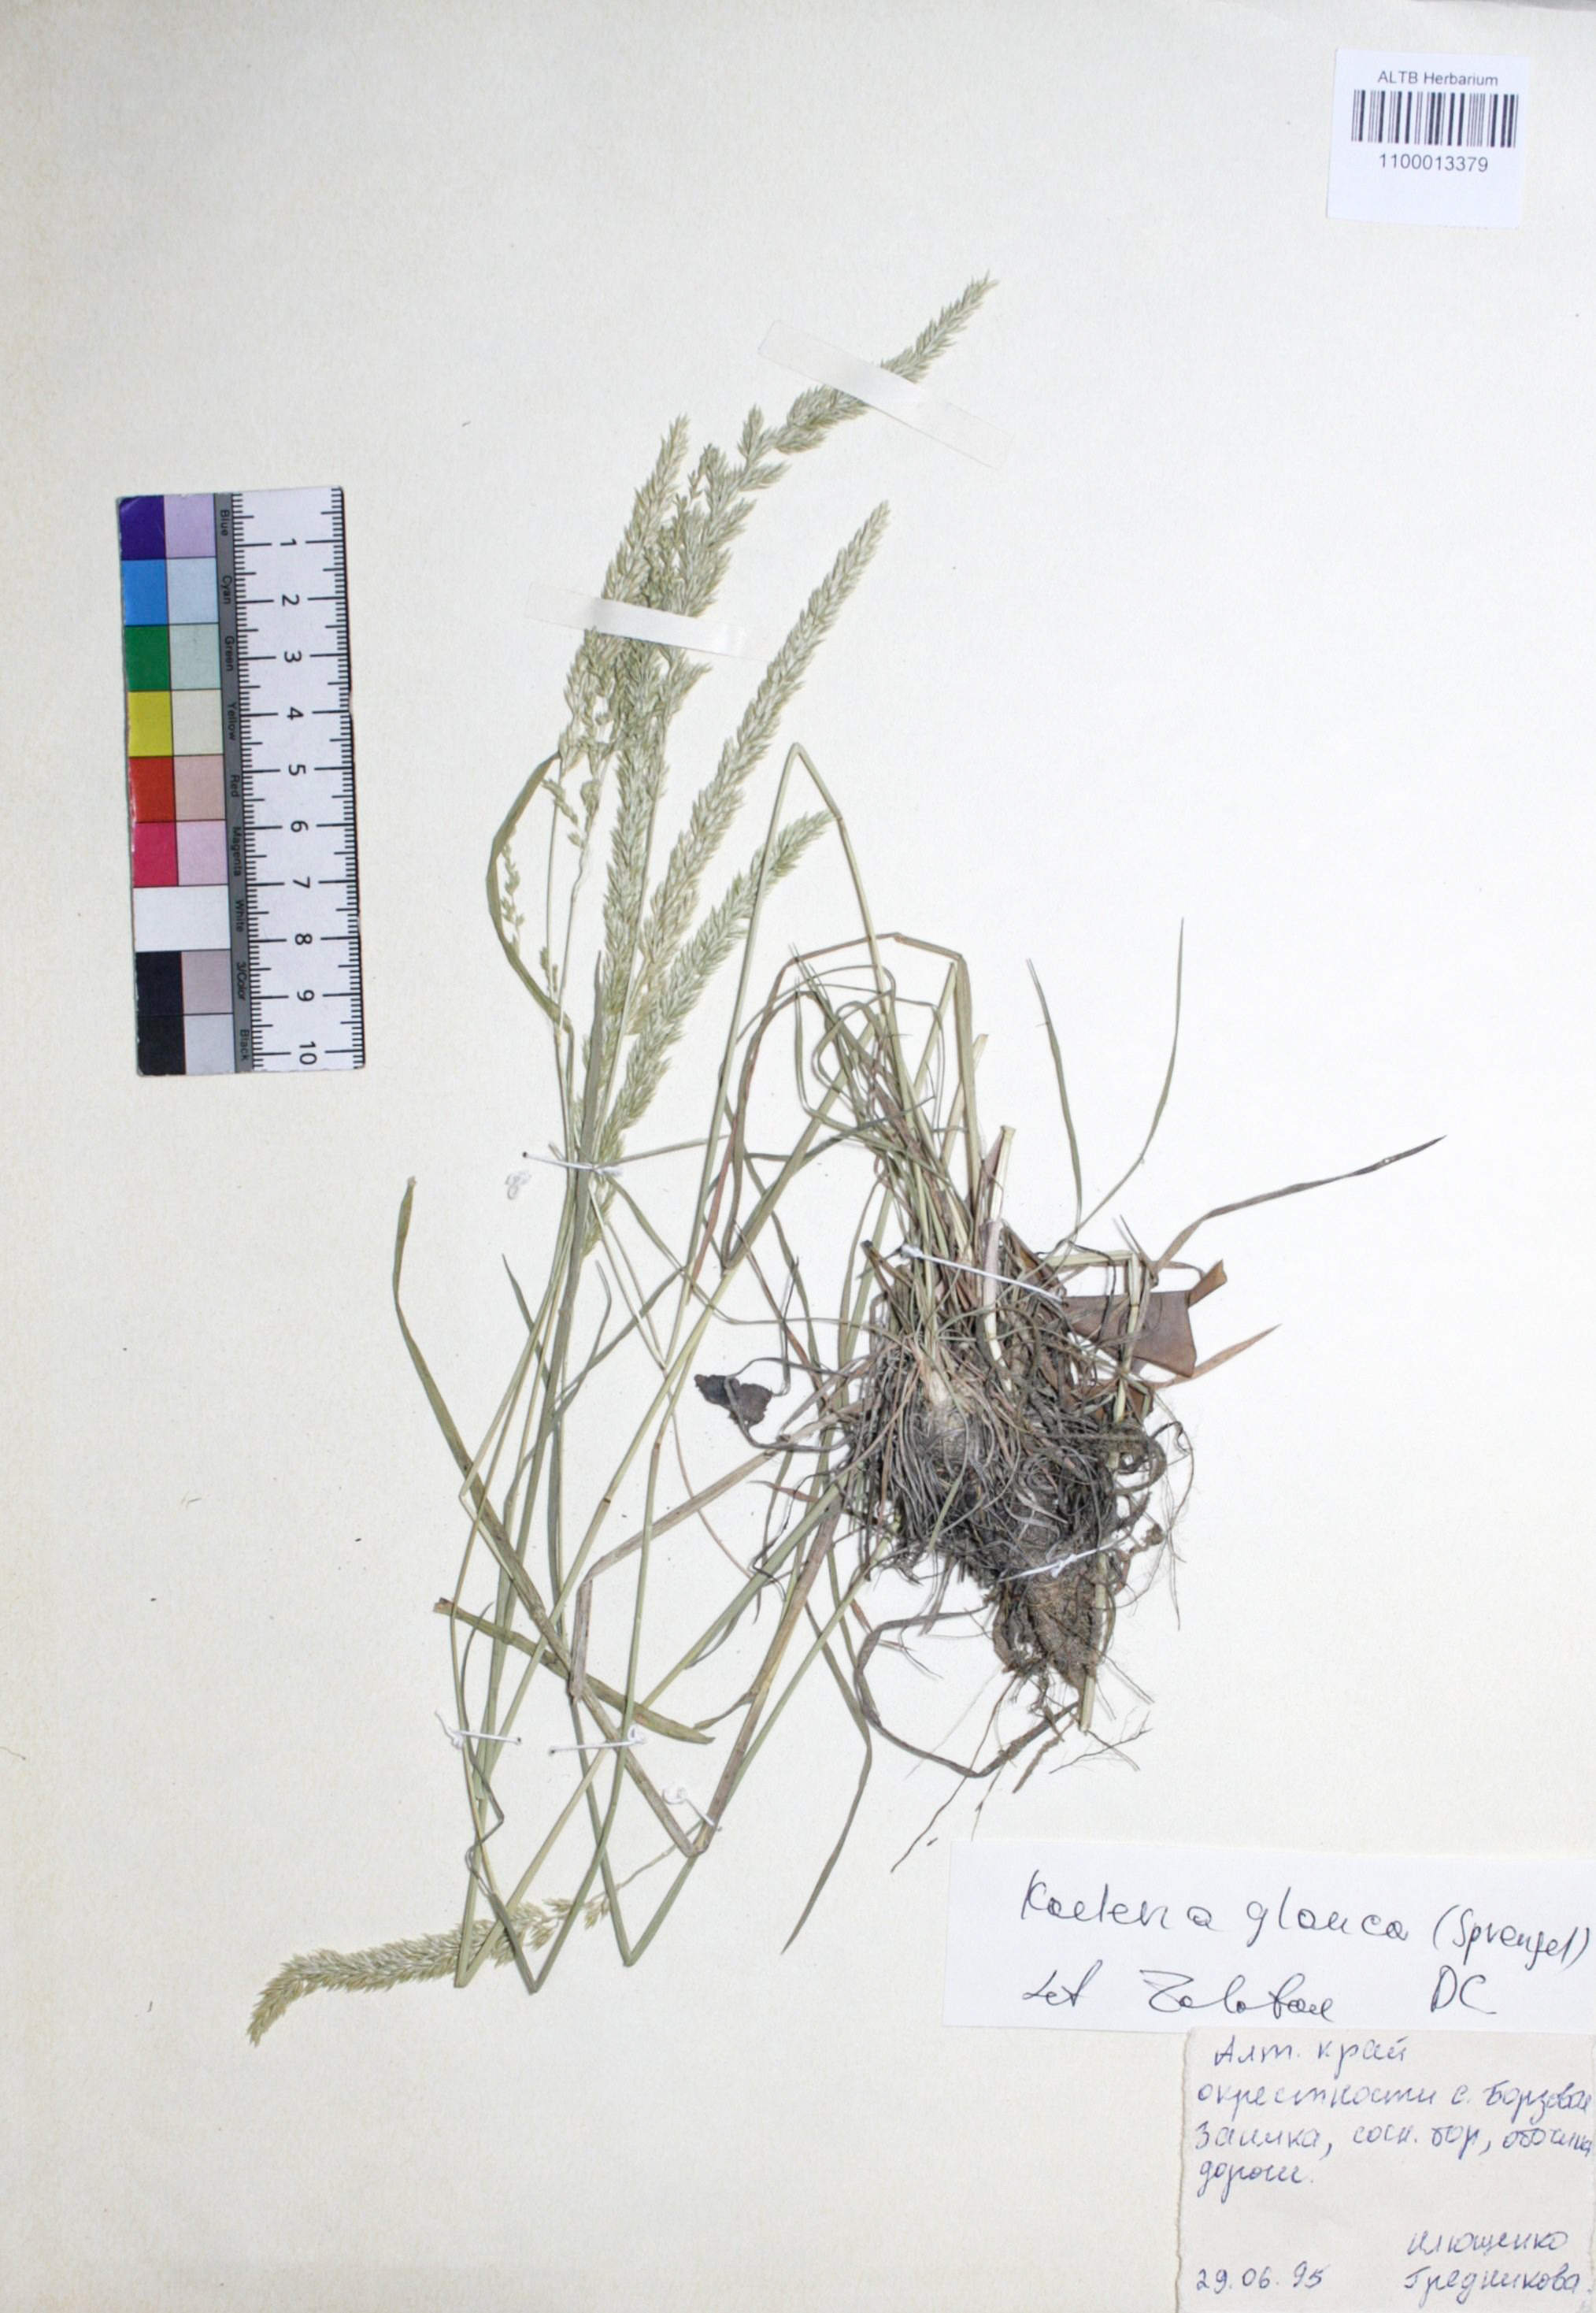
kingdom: Plantae
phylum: Tracheophyta
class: Liliopsida
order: Poales
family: Poaceae
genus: Koeleria
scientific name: Koeleria glauca
